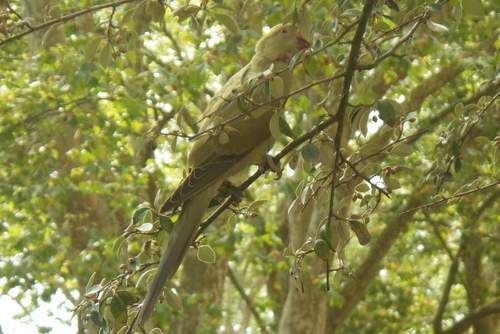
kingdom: Animalia
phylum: Chordata
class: Aves
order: Psittaciformes
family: Psittacidae
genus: Psittacula
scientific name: Psittacula krameri
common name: Rose-ringed parakeet
